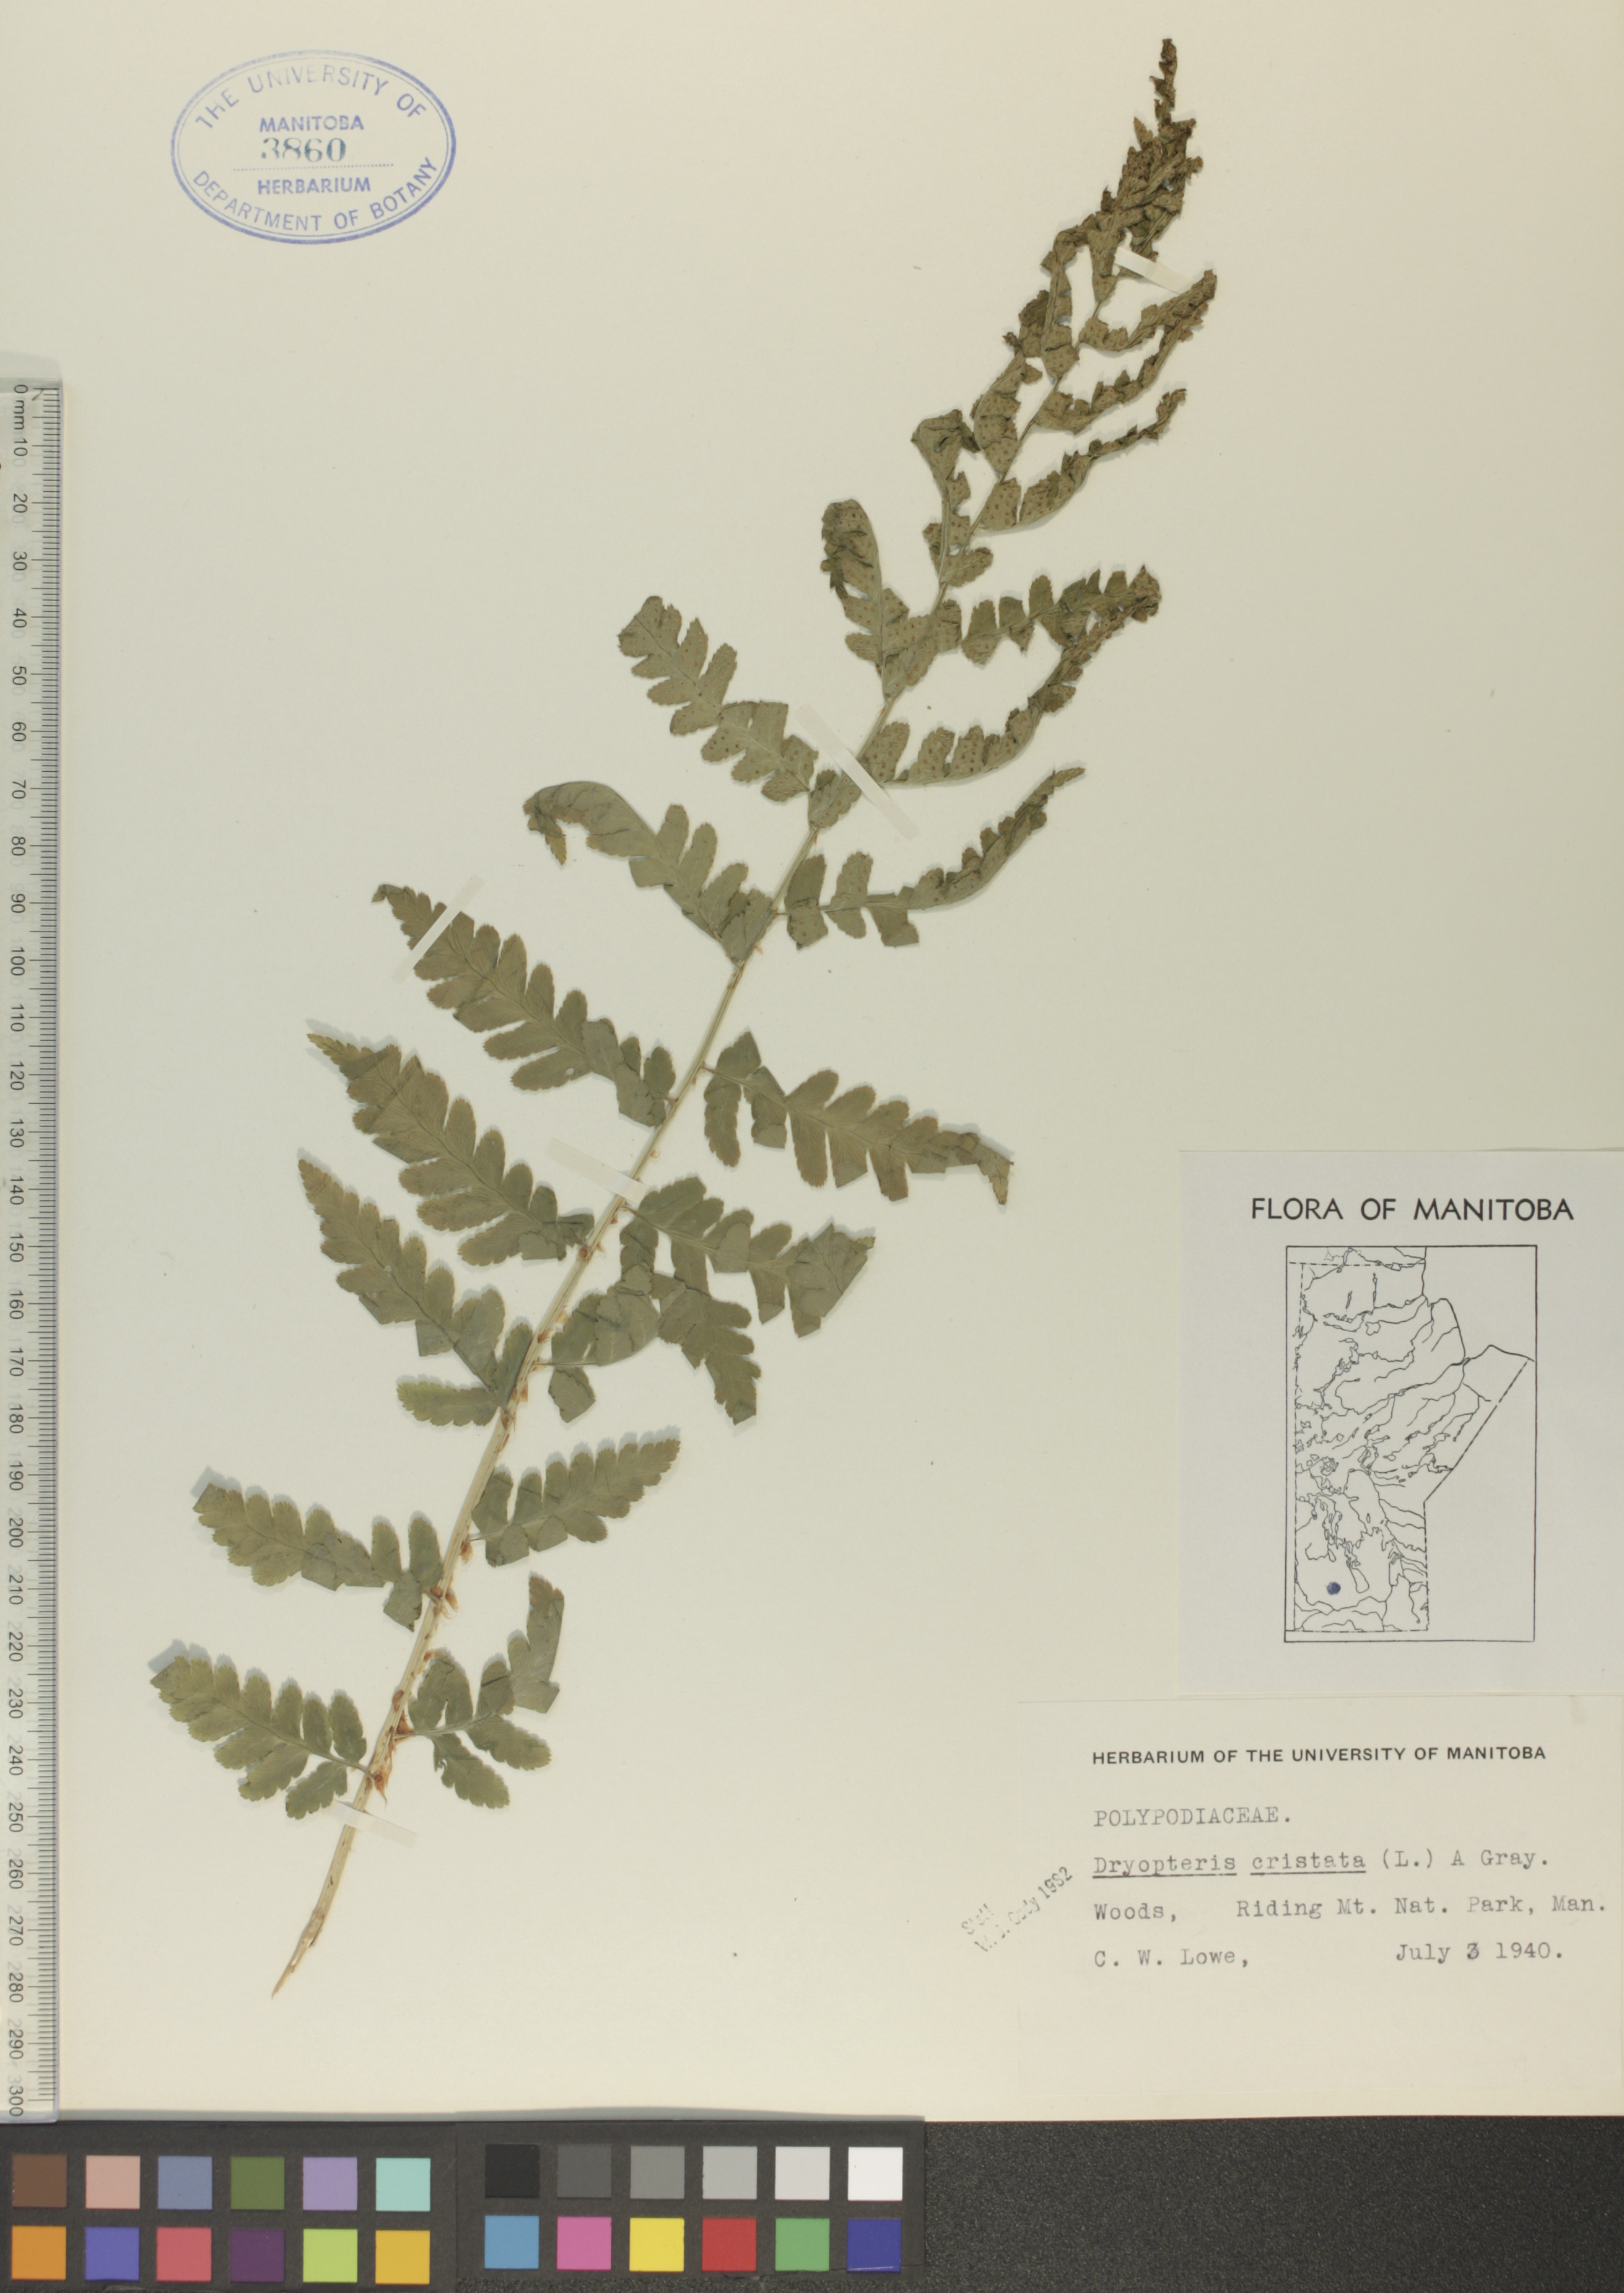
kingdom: Plantae
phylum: Tracheophyta
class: Polypodiopsida
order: Polypodiales
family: Dryopteridaceae
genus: Dryopteris
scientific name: Dryopteris cristata
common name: Crested wood fern
